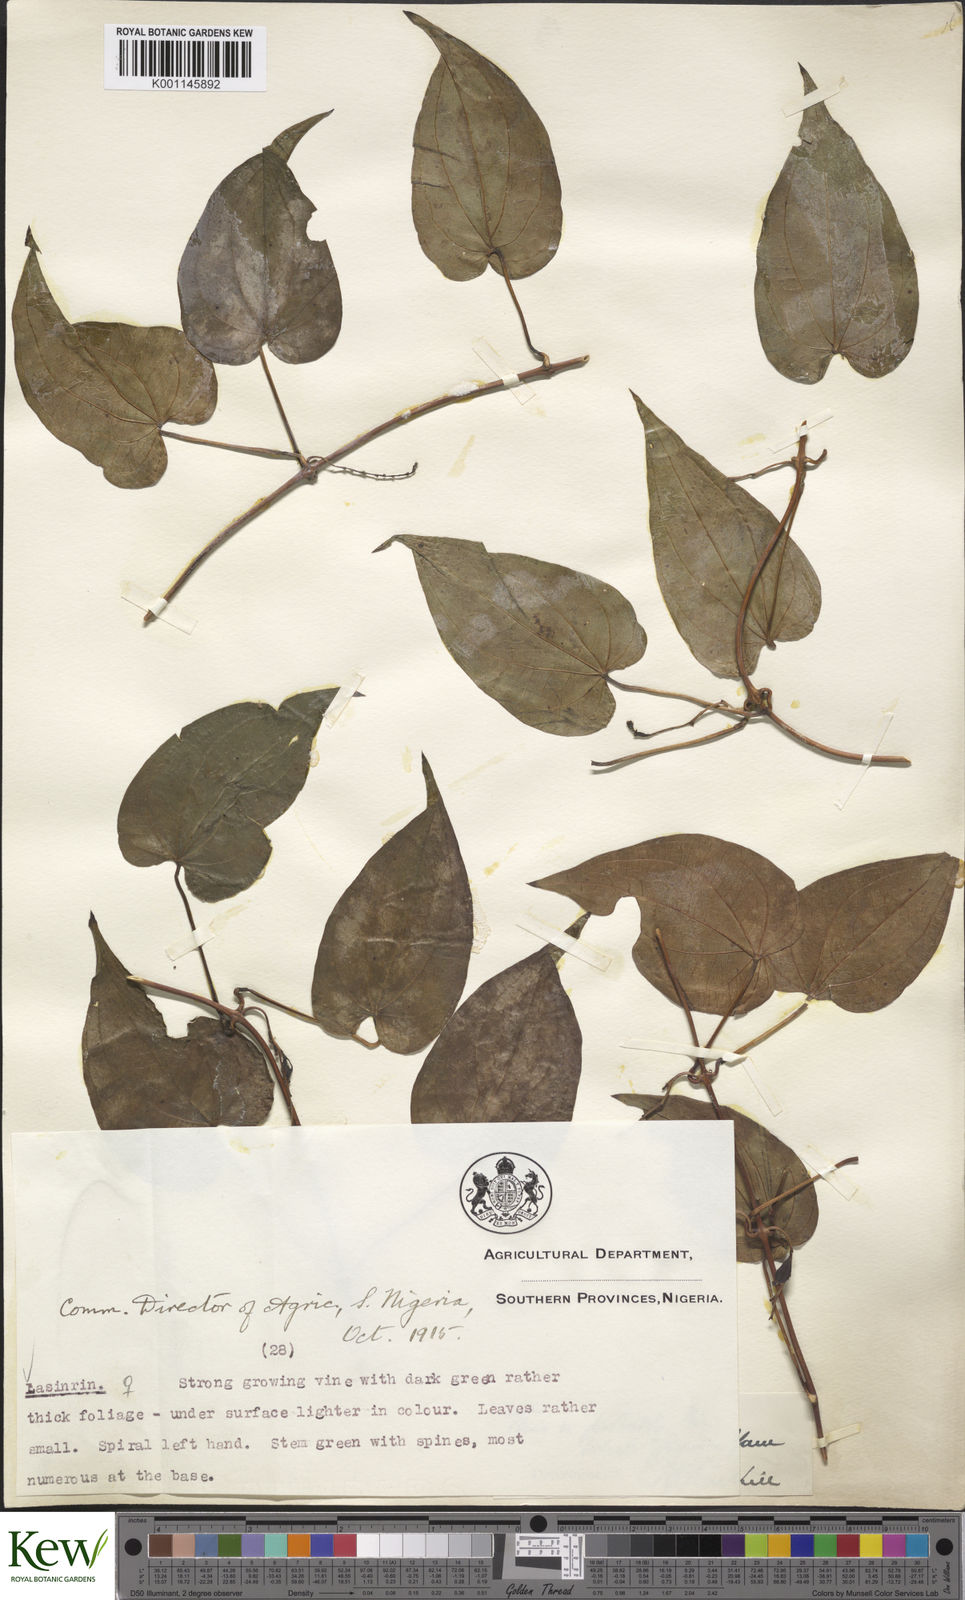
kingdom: Plantae
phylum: Tracheophyta
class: Liliopsida
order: Dioscoreales
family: Dioscoreaceae
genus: Dioscorea
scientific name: Dioscorea cayenensis
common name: Attoto yam
